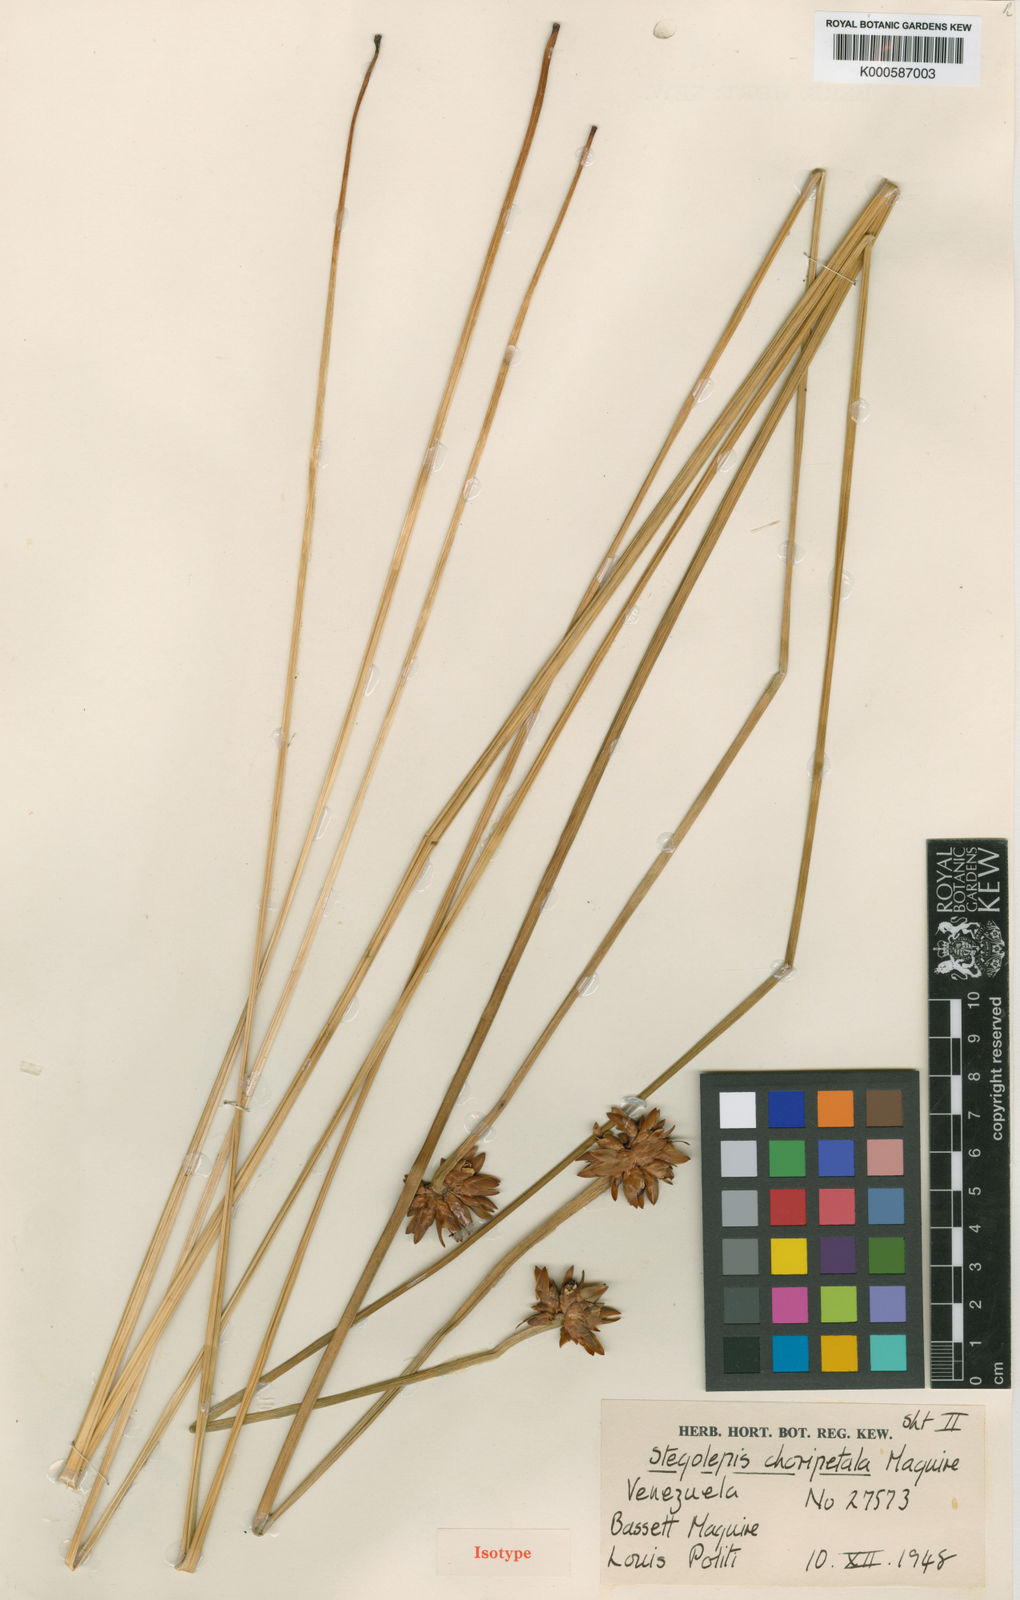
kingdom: Plantae
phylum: Tracheophyta
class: Liliopsida
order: Poales
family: Rapateaceae
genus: Stegolepis
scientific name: Stegolepis choripetala
